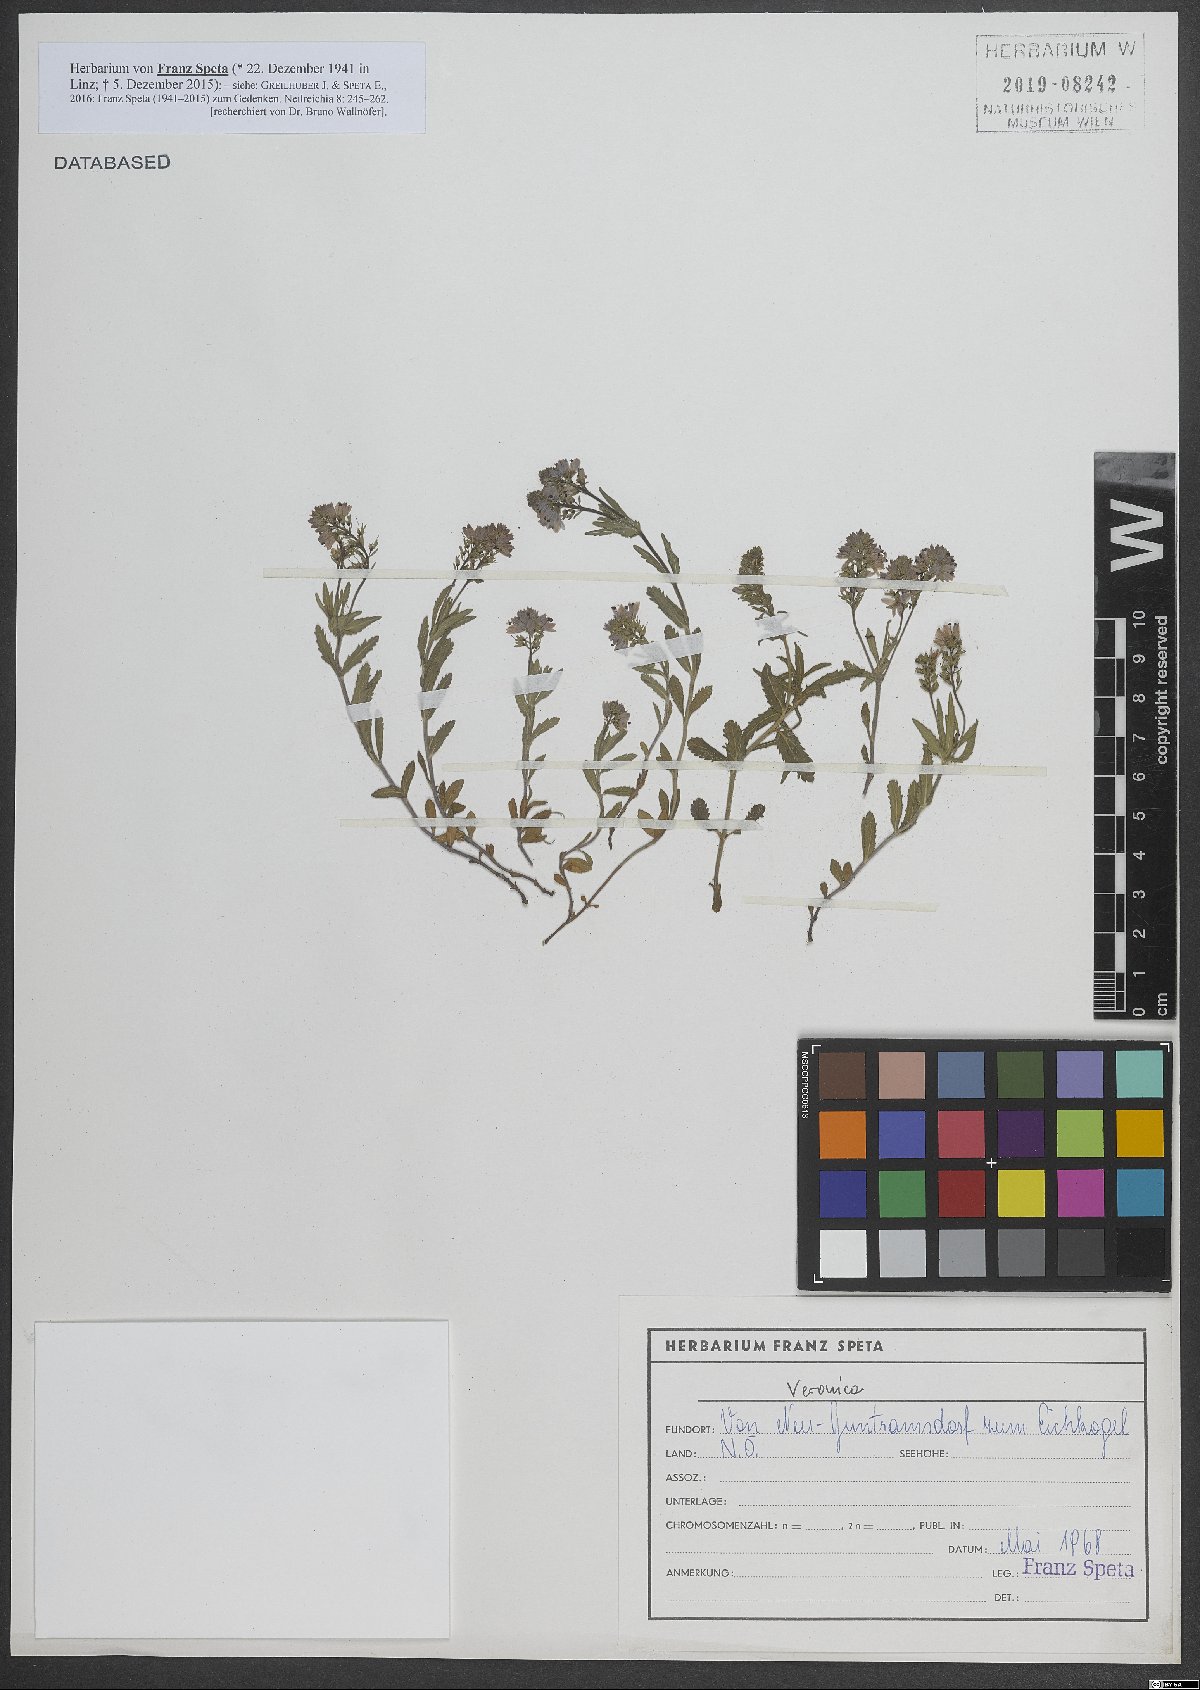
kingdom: Plantae
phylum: Tracheophyta
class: Magnoliopsida
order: Lamiales
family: Plantaginaceae
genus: Veronica
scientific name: Veronica
